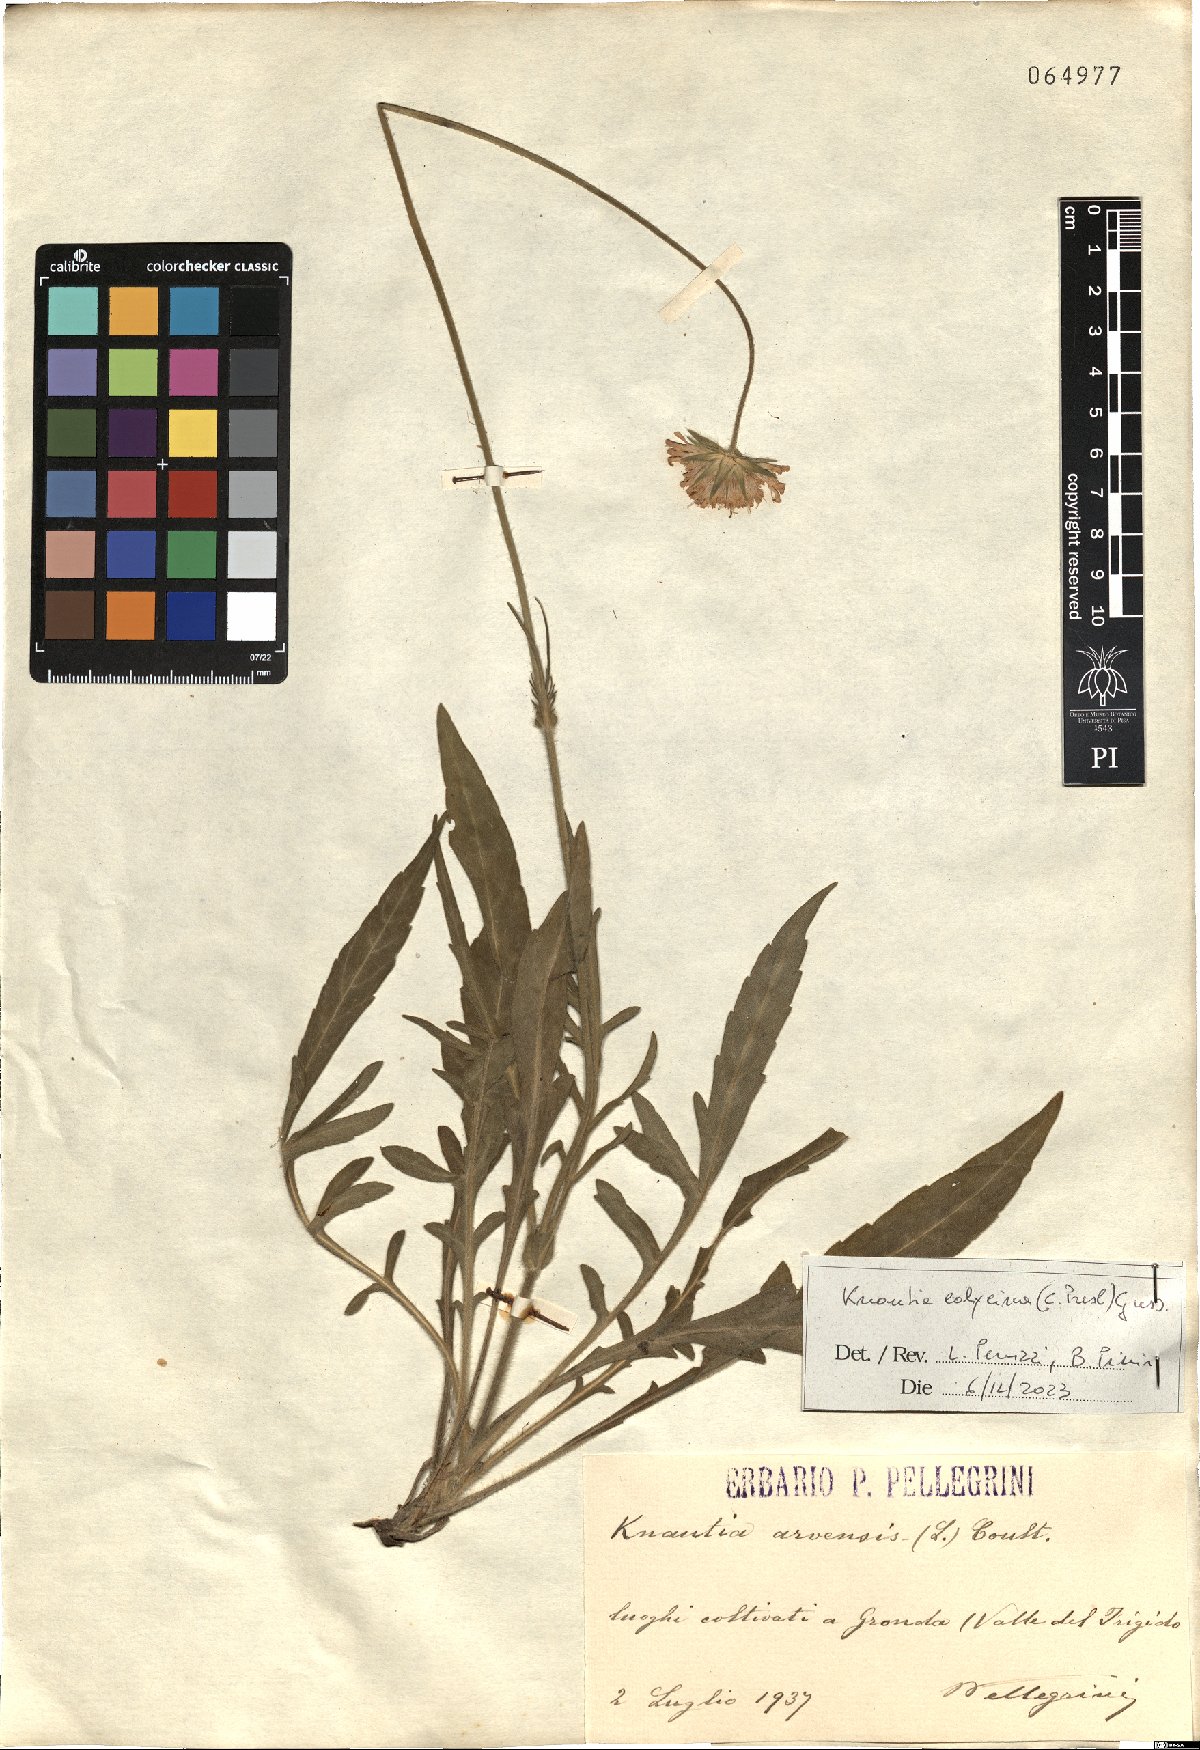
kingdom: Plantae
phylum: Tracheophyta
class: Magnoliopsida
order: Dipsacales
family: Caprifoliaceae
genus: Knautia
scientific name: Knautia calycina
